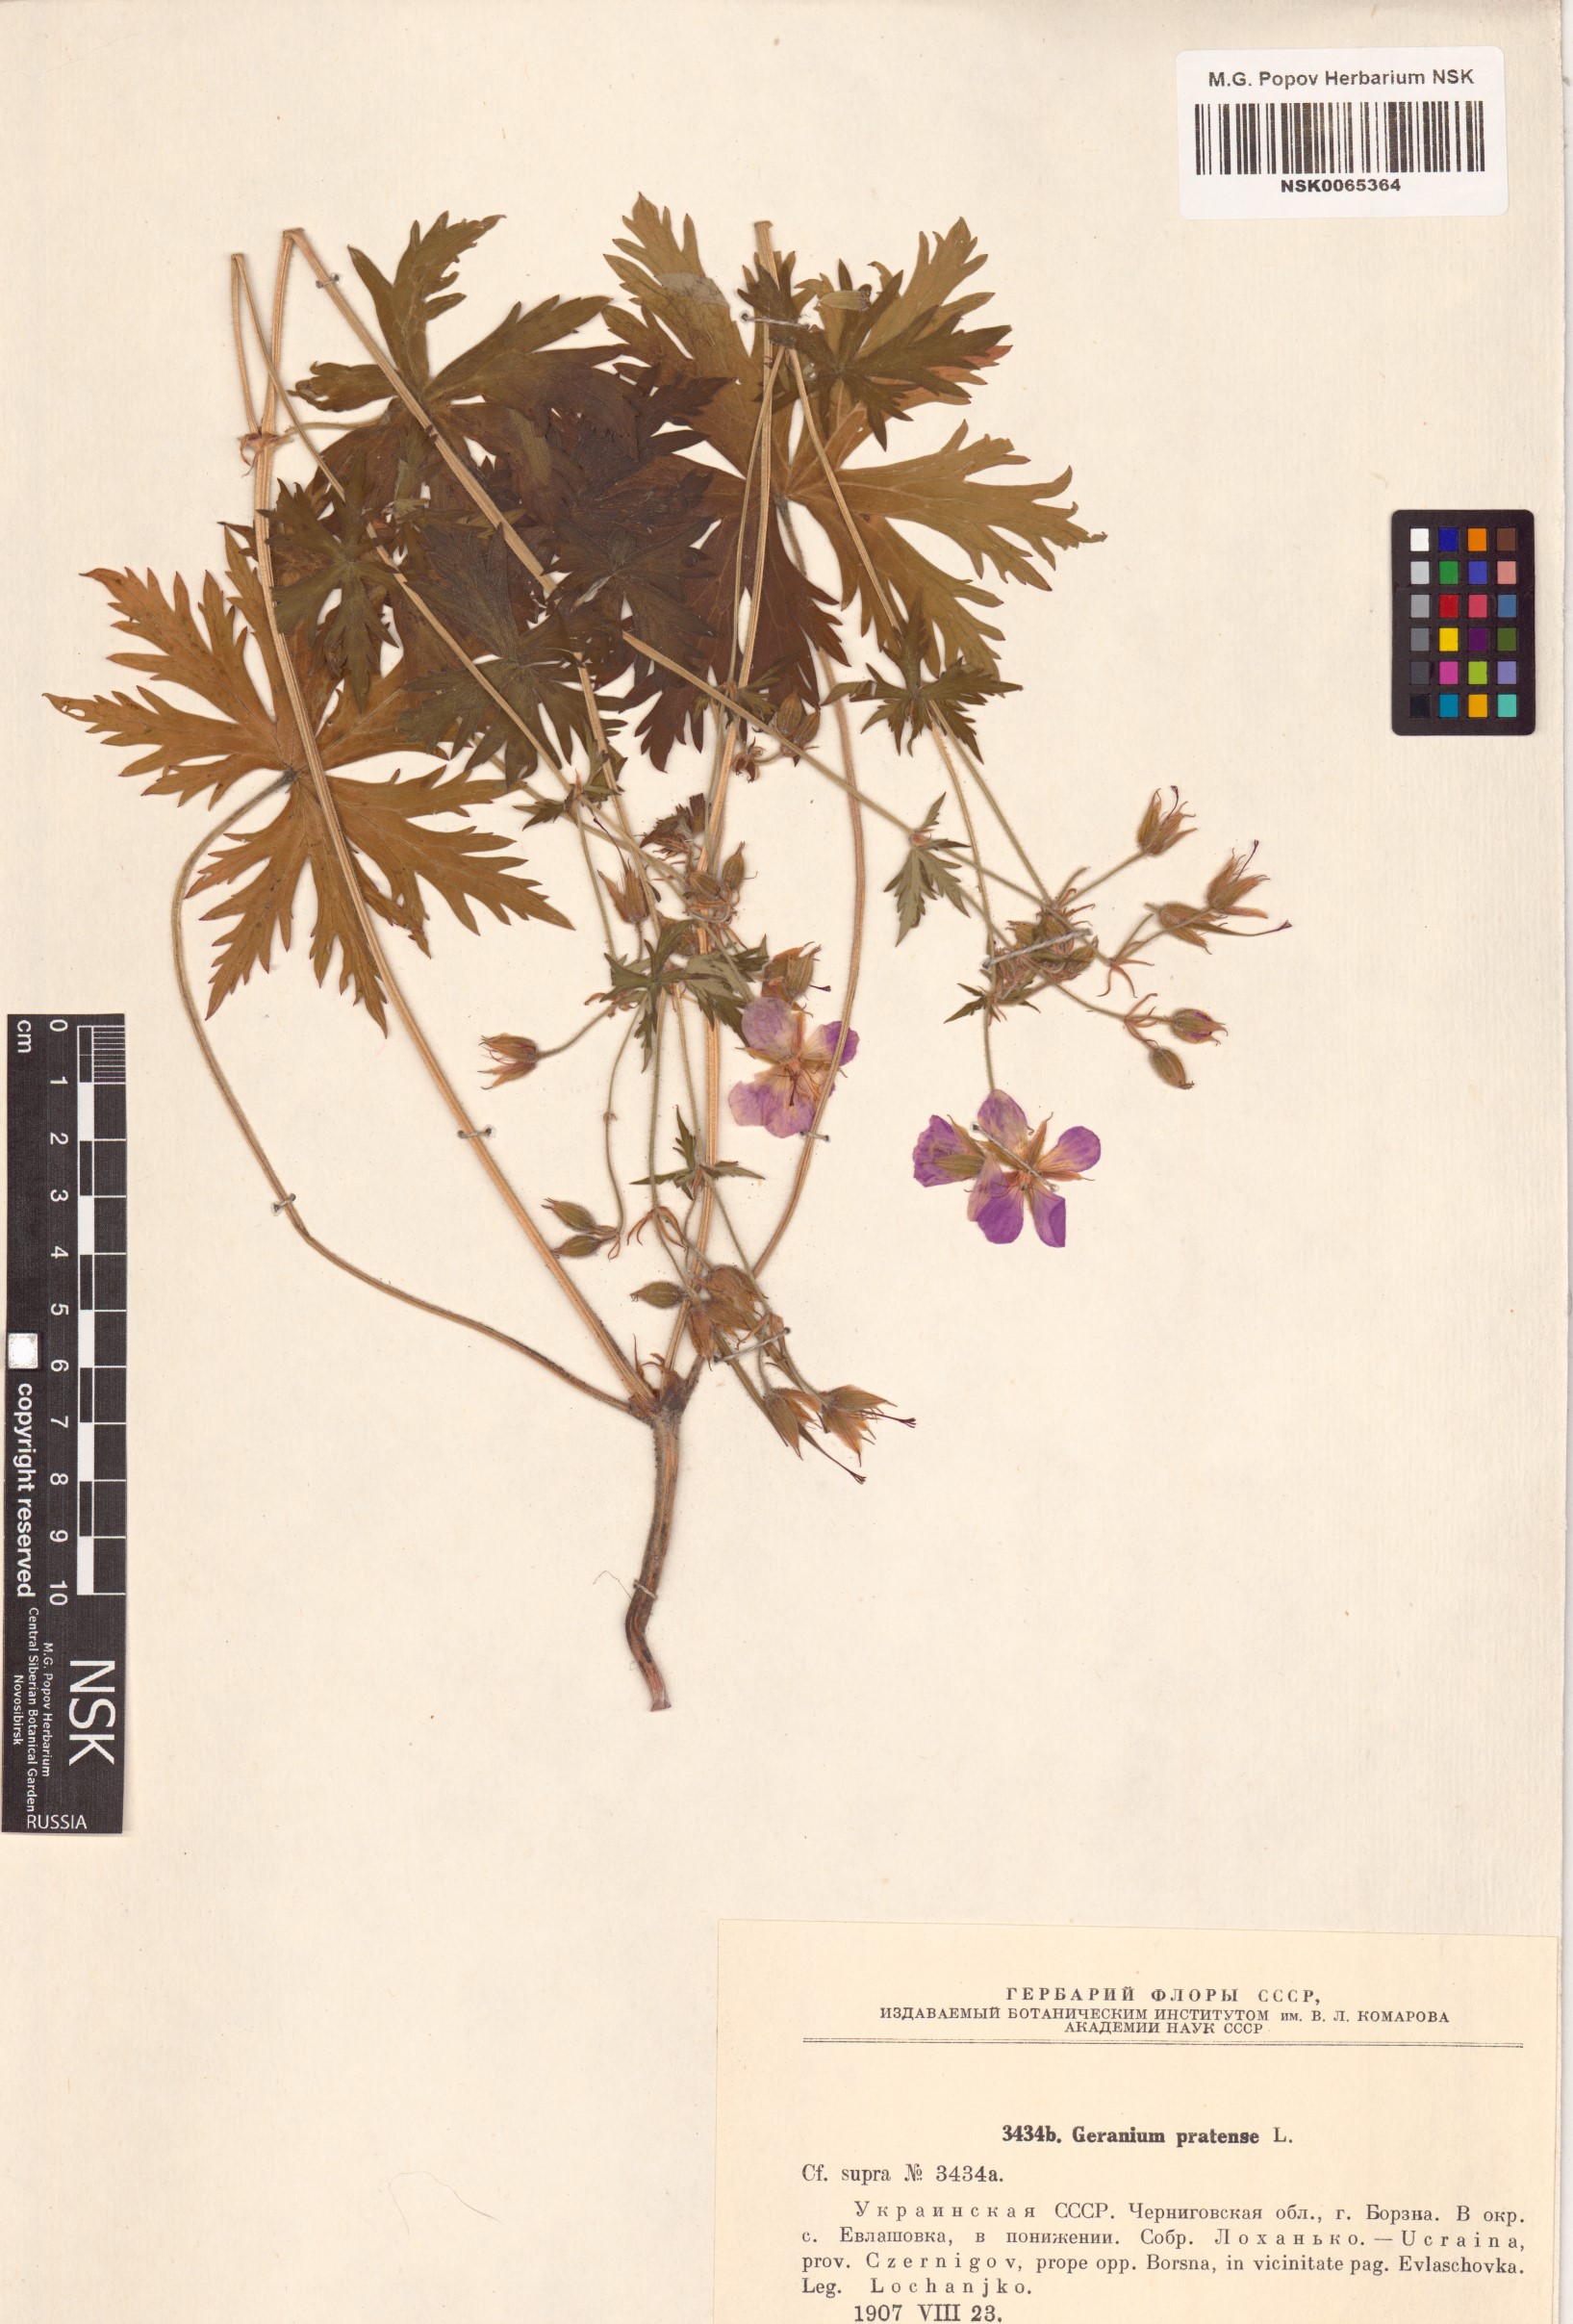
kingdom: Plantae
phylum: Tracheophyta
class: Magnoliopsida
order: Geraniales
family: Geraniaceae
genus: Geranium
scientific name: Geranium pratense
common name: Meadow crane's-bill
